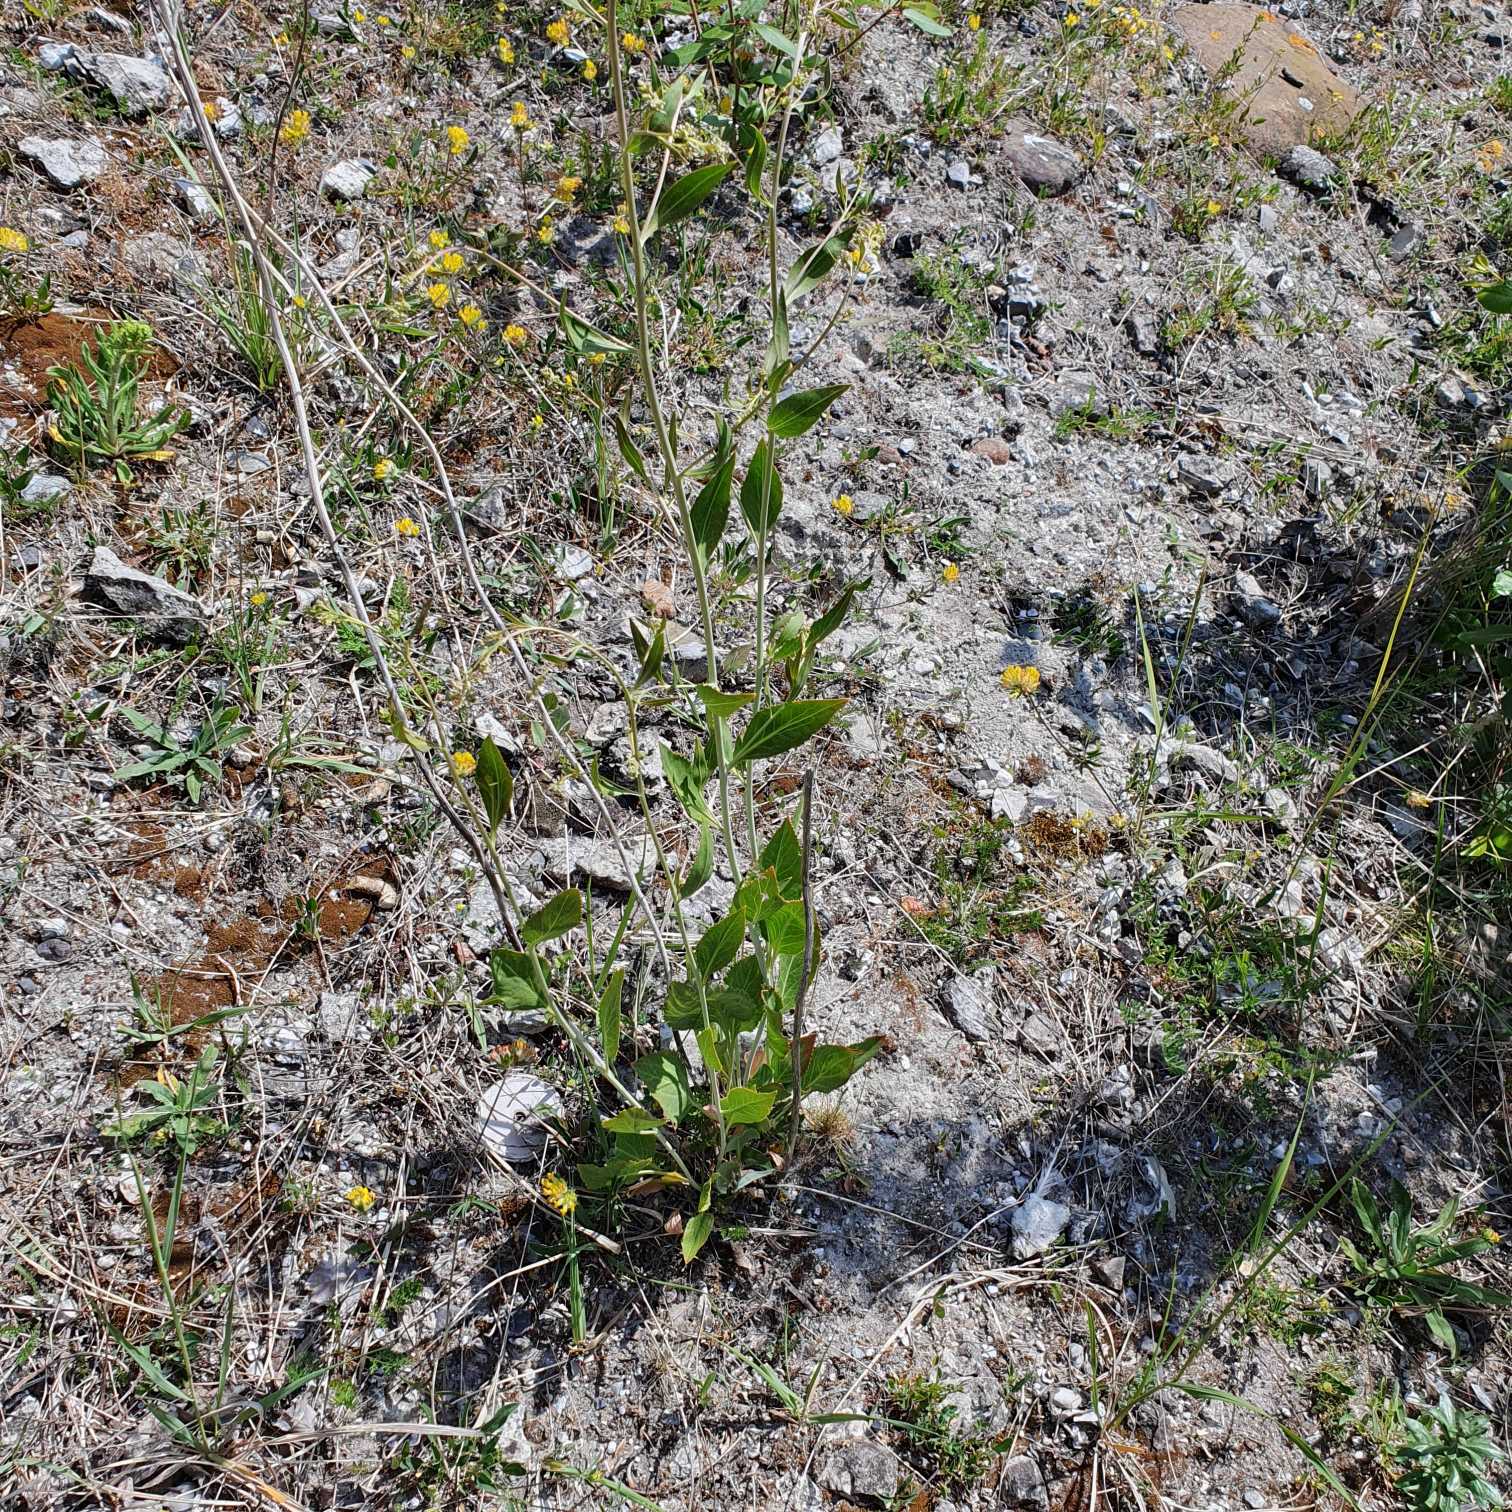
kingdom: Plantae
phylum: Tracheophyta
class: Magnoliopsida
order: Brassicales
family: Brassicaceae
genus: Lepidium
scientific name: Lepidium latifolium
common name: Strand-karse
